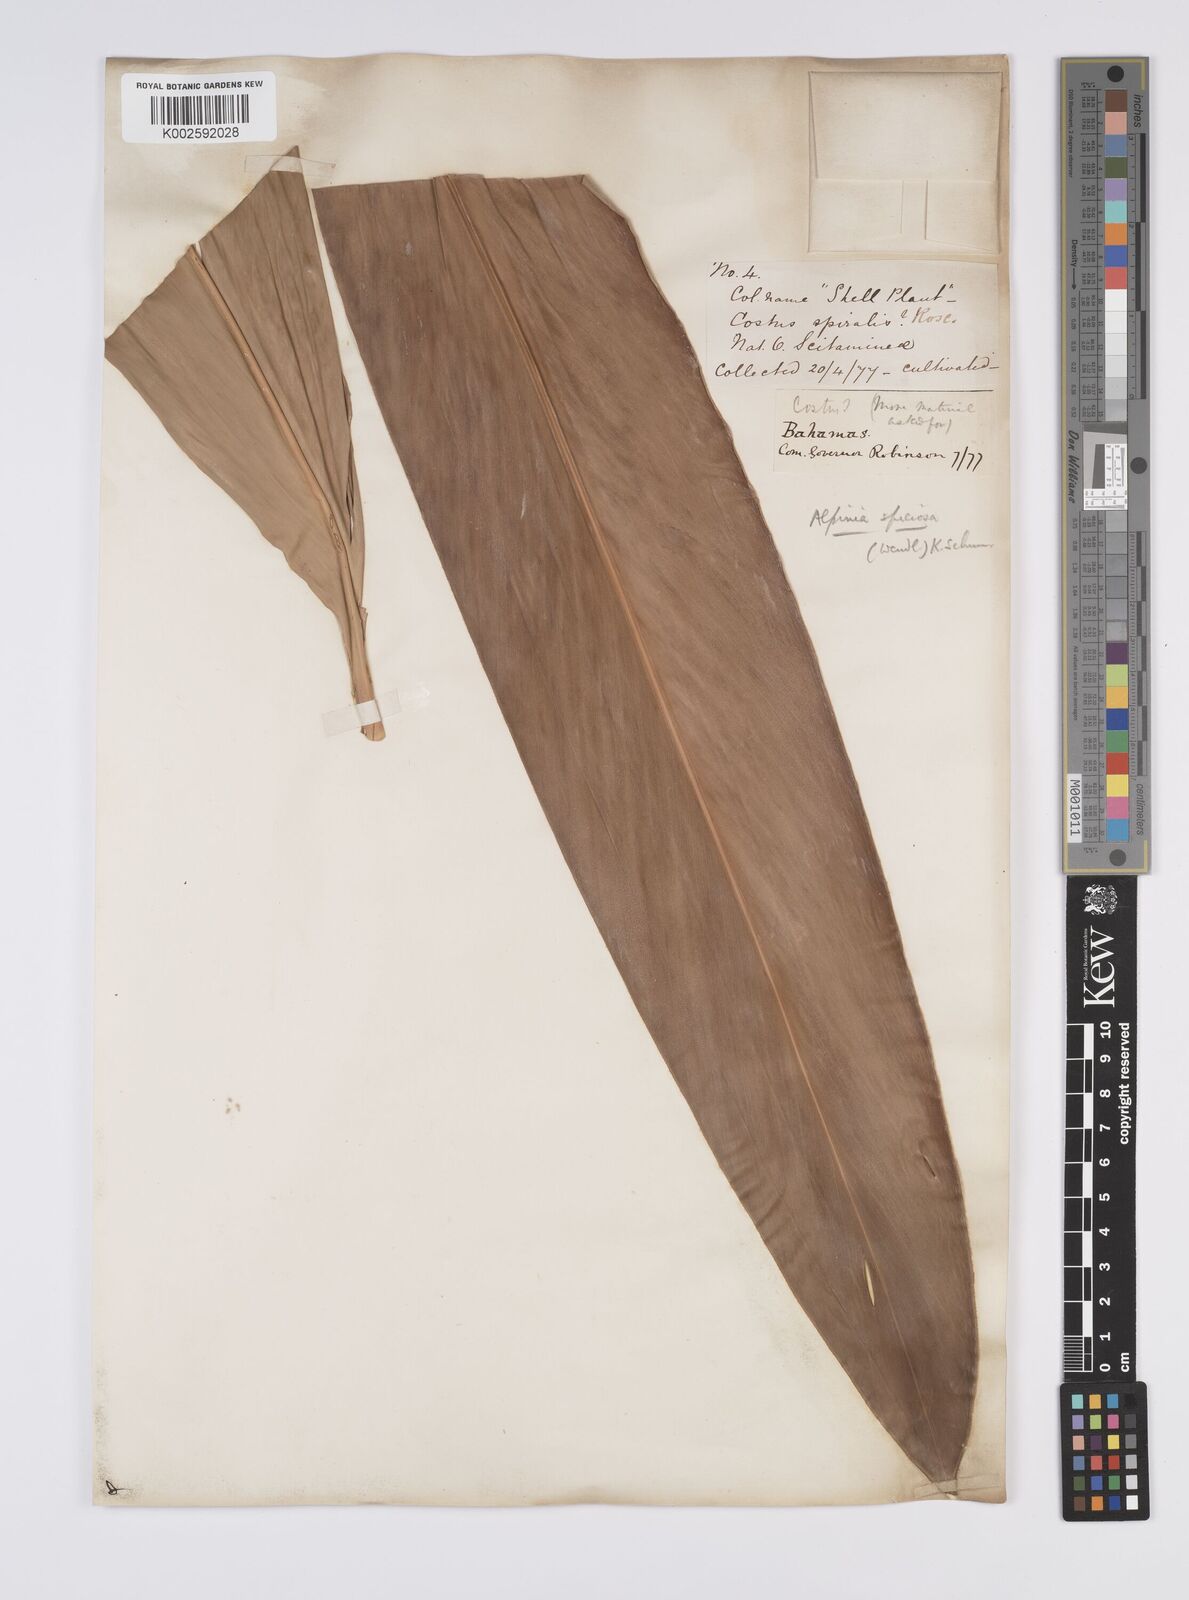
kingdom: Plantae
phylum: Tracheophyta
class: Liliopsida
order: Zingiberales
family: Zingiberaceae
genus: Alpinia
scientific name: Alpinia zerumbet
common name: Shellplant
